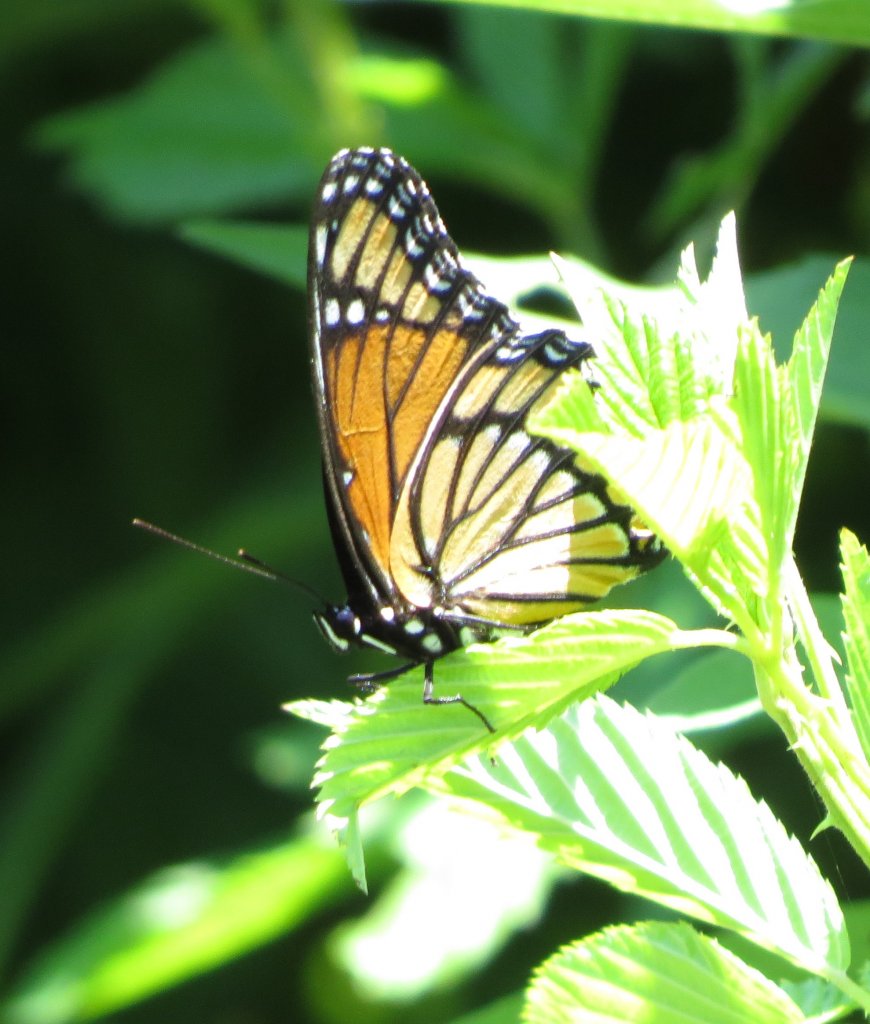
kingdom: Animalia
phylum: Arthropoda
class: Insecta
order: Lepidoptera
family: Nymphalidae
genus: Limenitis
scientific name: Limenitis archippus
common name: Viceroy
